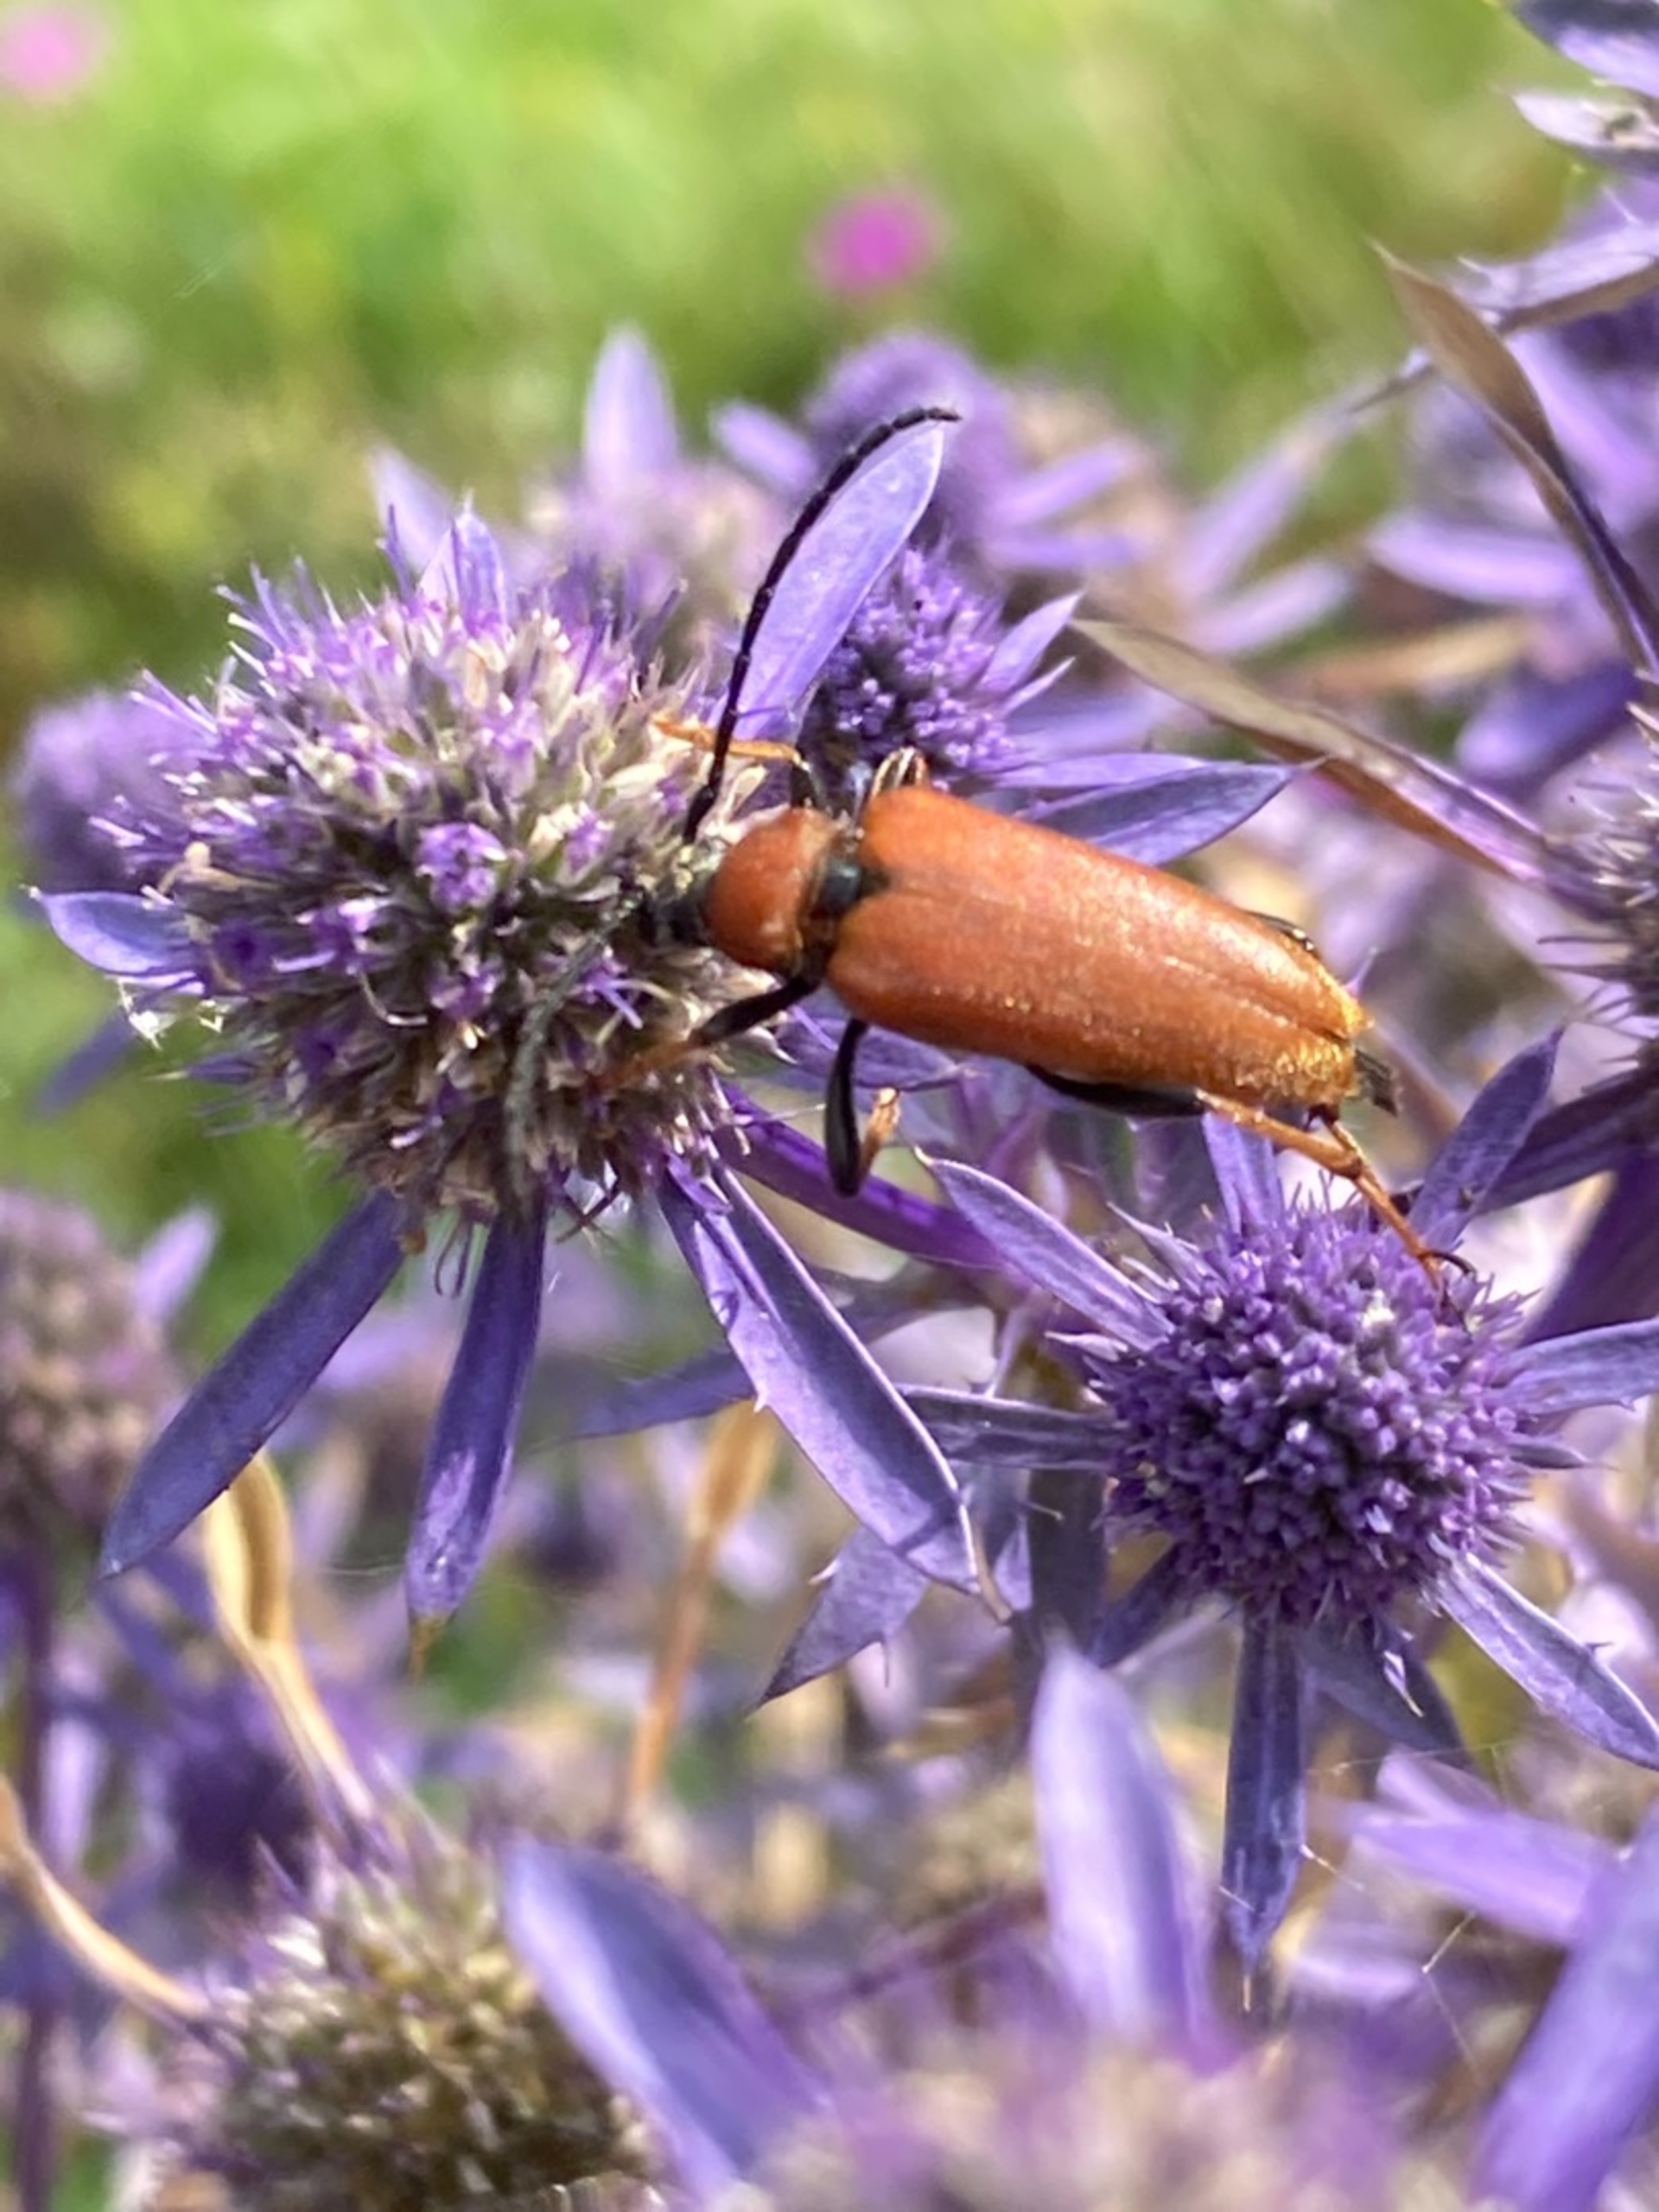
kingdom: Animalia
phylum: Arthropoda
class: Insecta
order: Coleoptera
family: Cerambycidae
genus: Stictoleptura
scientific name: Stictoleptura rubra
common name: Rød blomsterbuk
